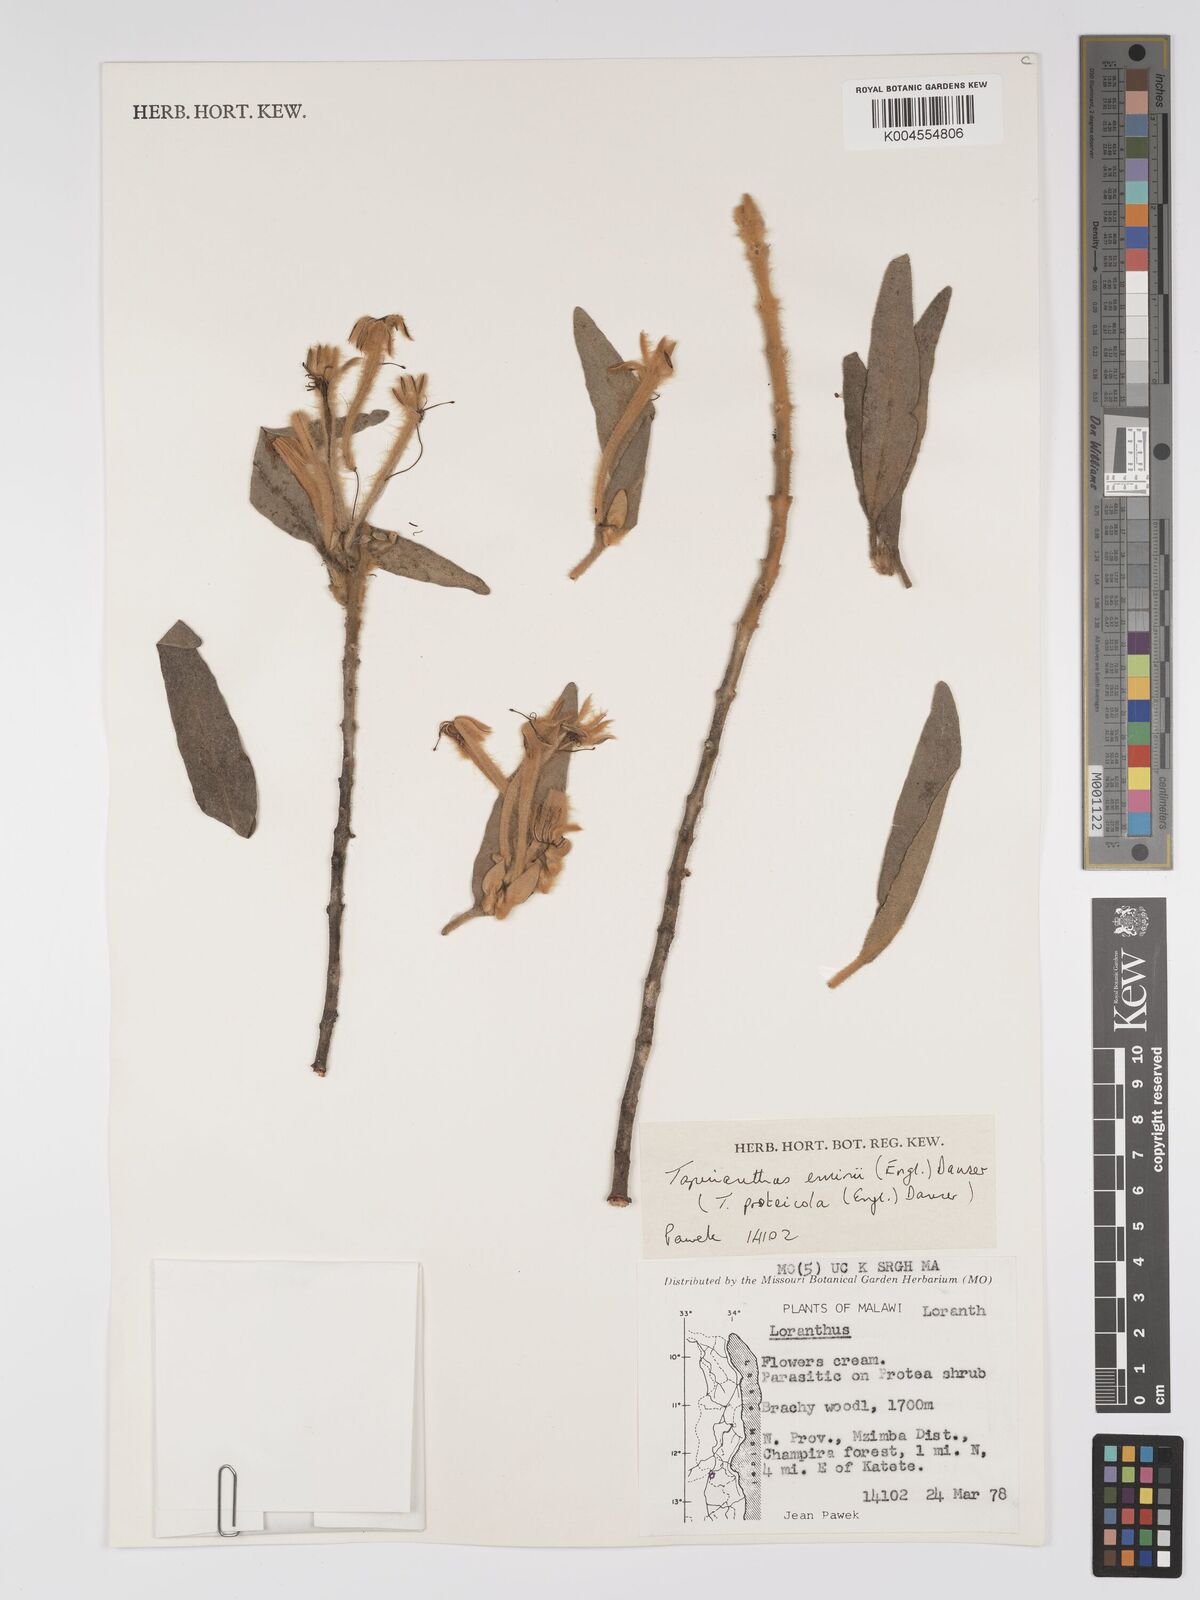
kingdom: Plantae
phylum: Tracheophyta
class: Magnoliopsida
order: Santalales
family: Loranthaceae
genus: Phragmanthera
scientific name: Phragmanthera proteicola
